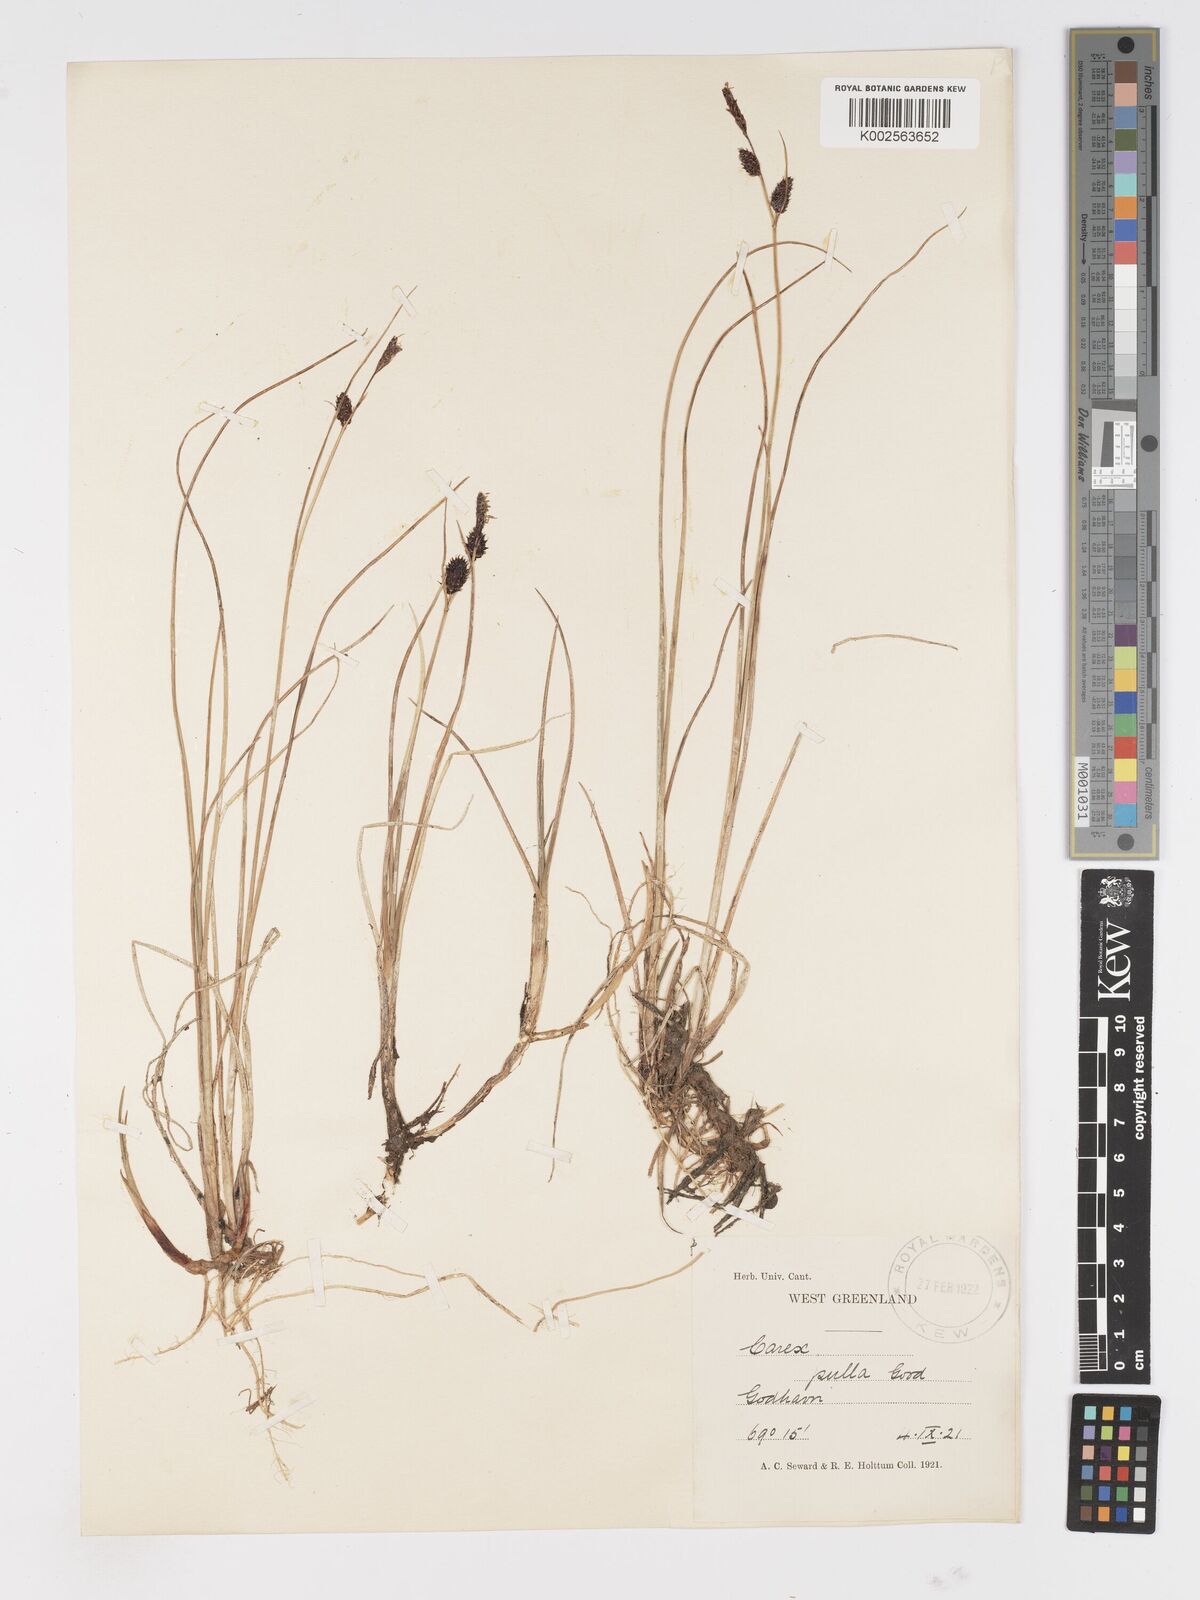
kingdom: Plantae
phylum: Tracheophyta
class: Liliopsida
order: Poales
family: Cyperaceae
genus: Carex
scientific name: Carex saxatilis
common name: Russet sedge
